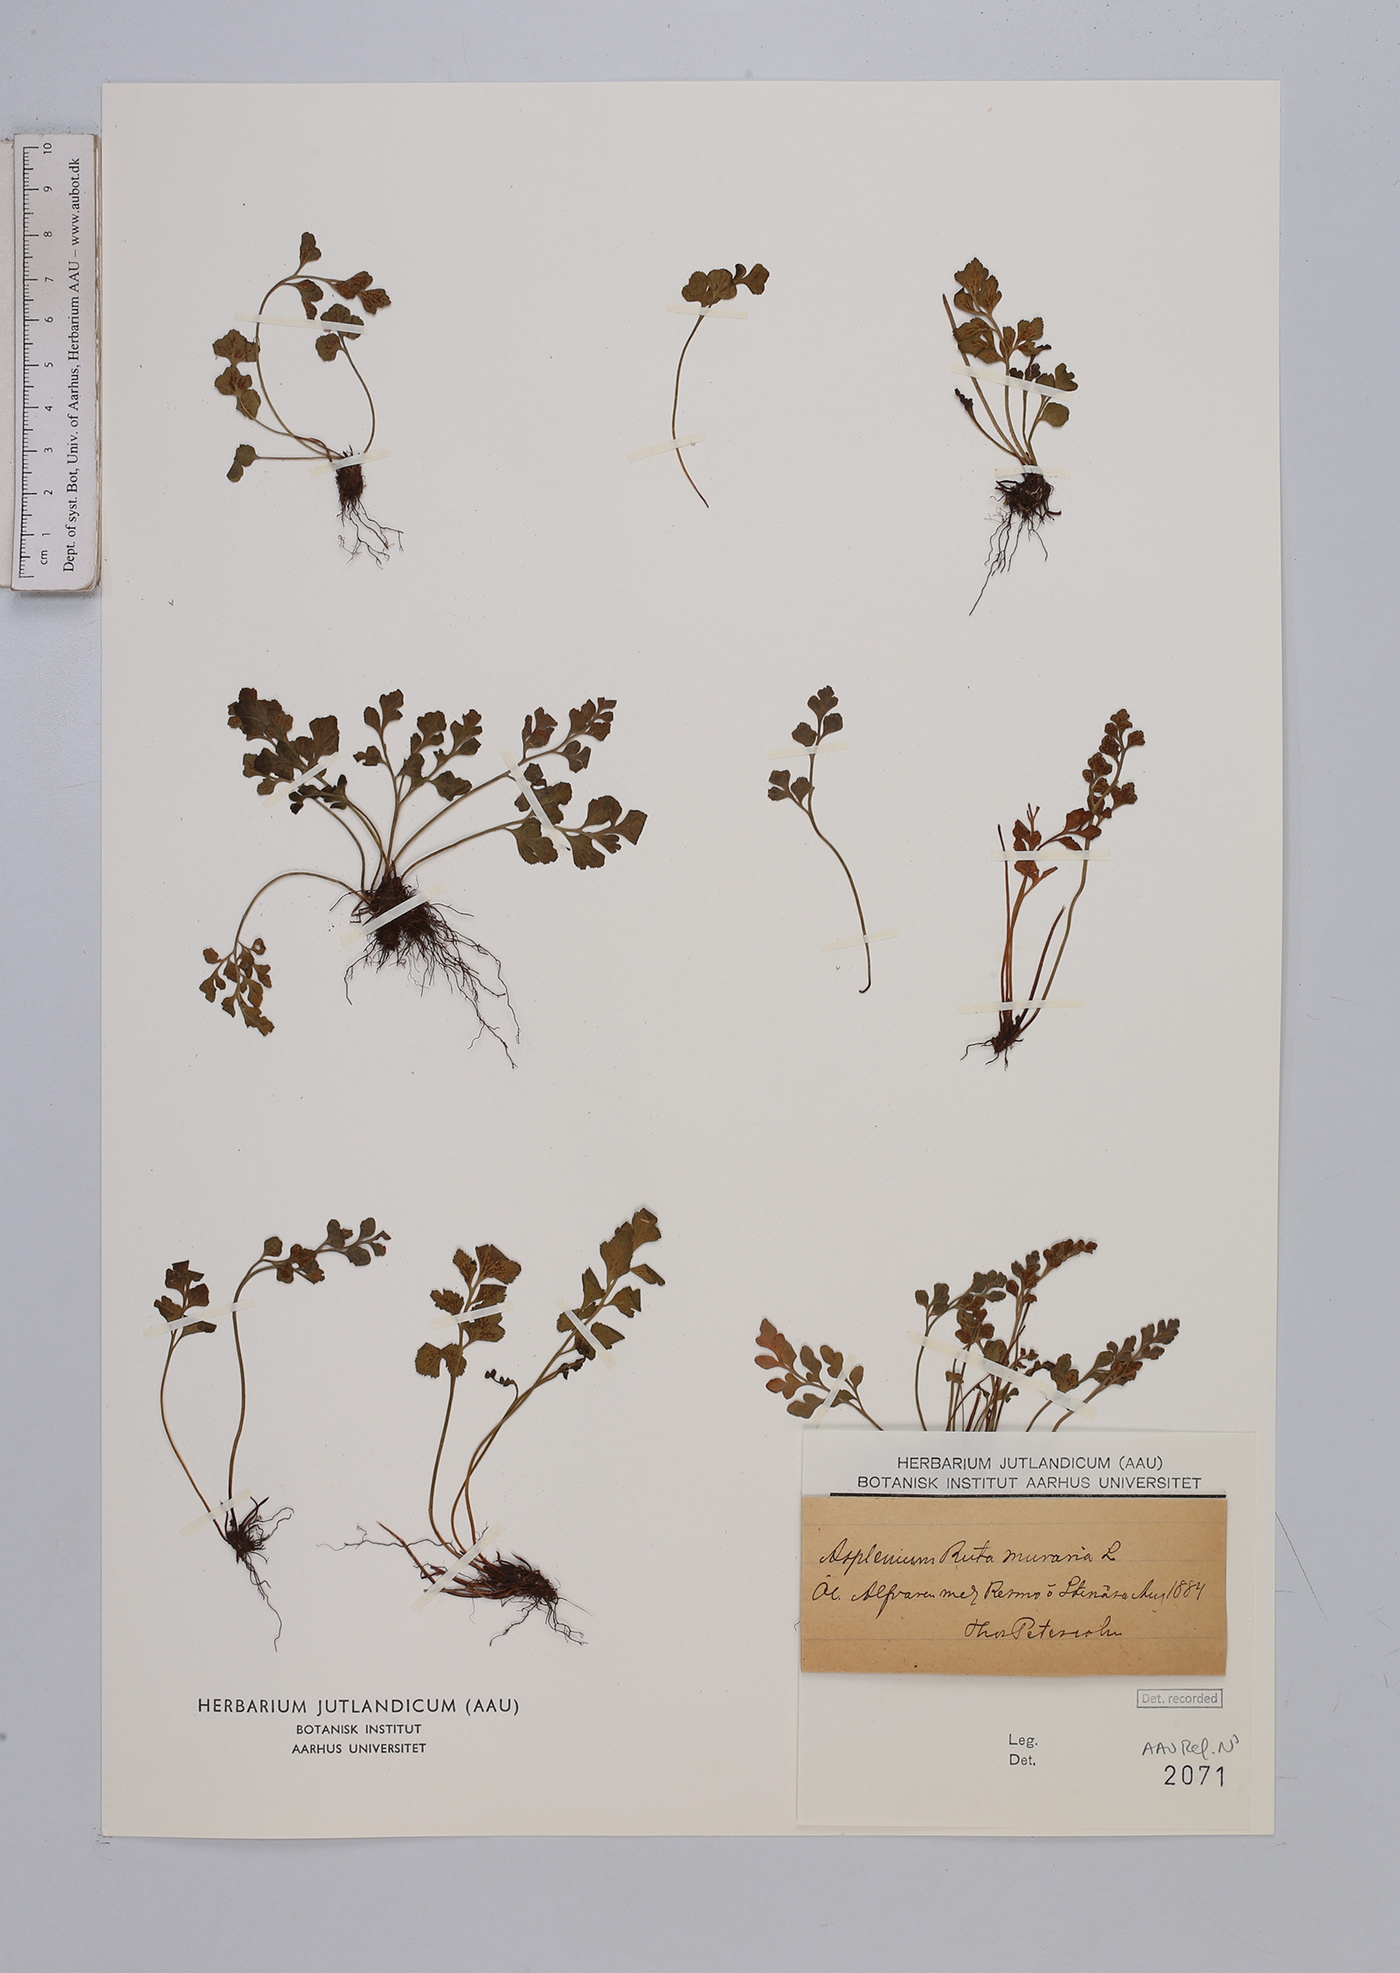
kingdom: Plantae
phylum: Tracheophyta
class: Polypodiopsida
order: Polypodiales
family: Aspleniaceae
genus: Asplenium
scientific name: Asplenium ruta-muraria
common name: Wall-rue
